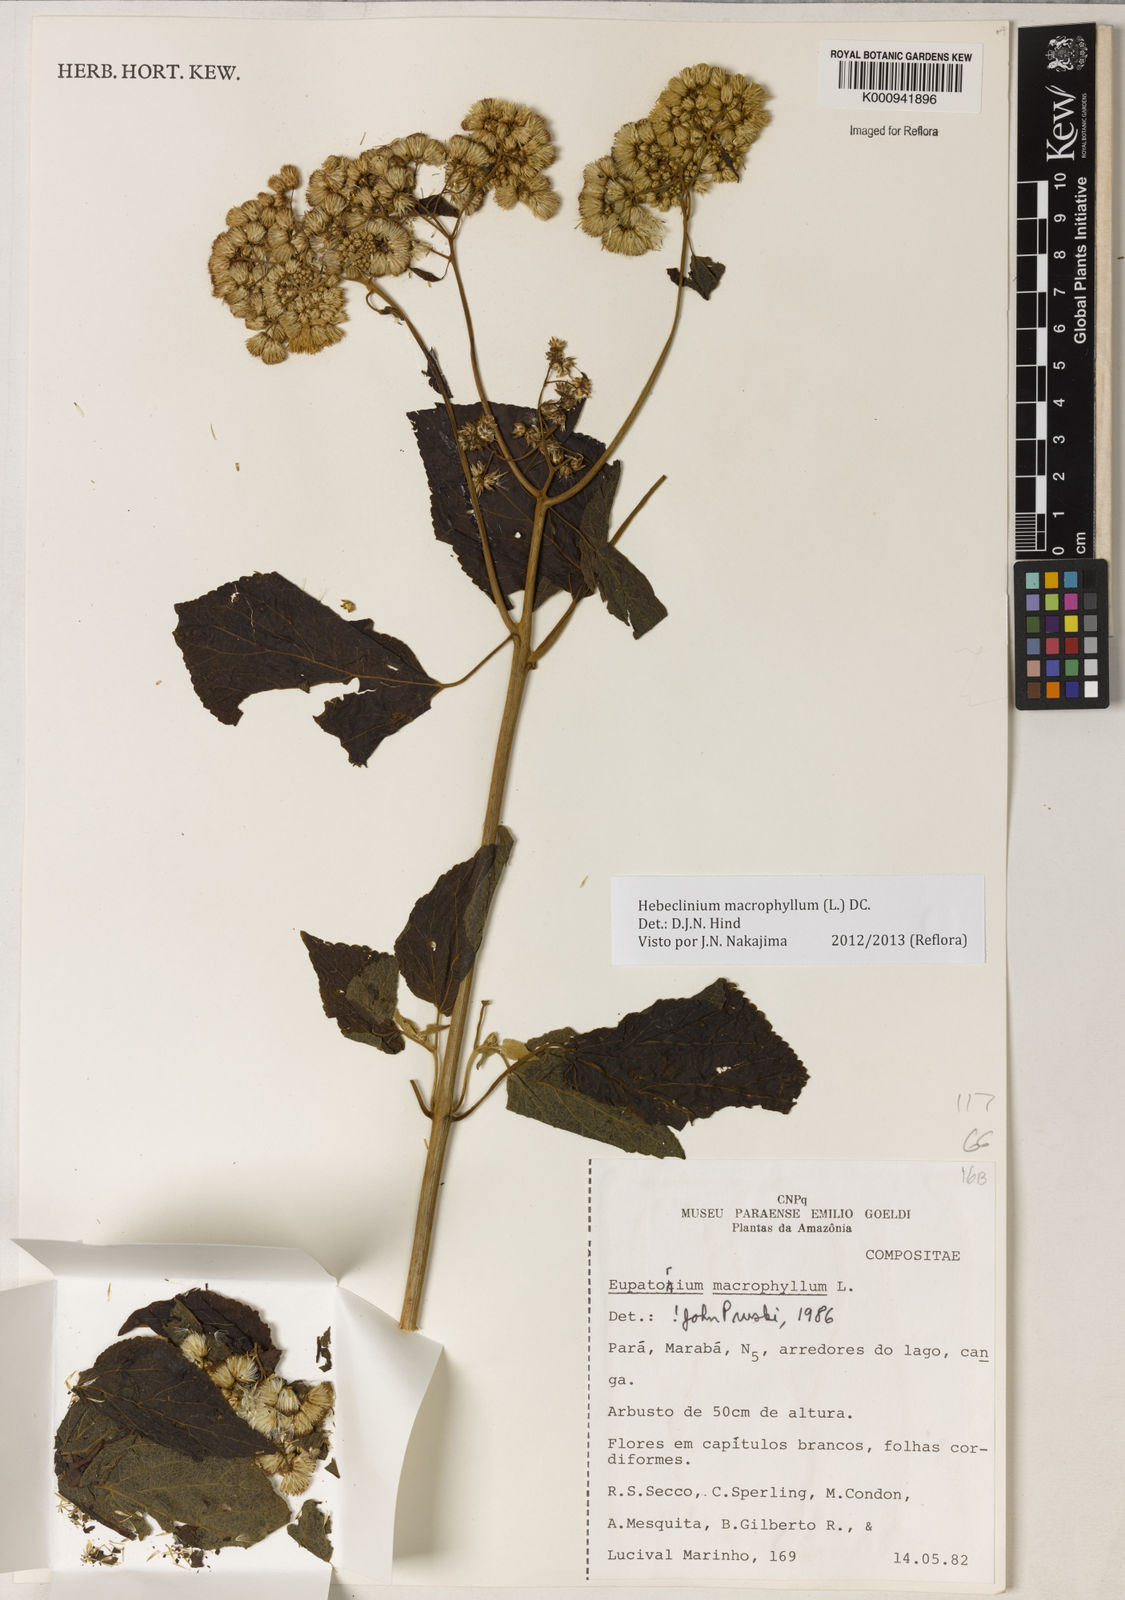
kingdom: Plantae
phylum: Tracheophyta
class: Magnoliopsida
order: Asterales
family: Asteraceae
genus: Hebeclinium
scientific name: Hebeclinium macrophyllum
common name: Largeleaf thoroughwort
